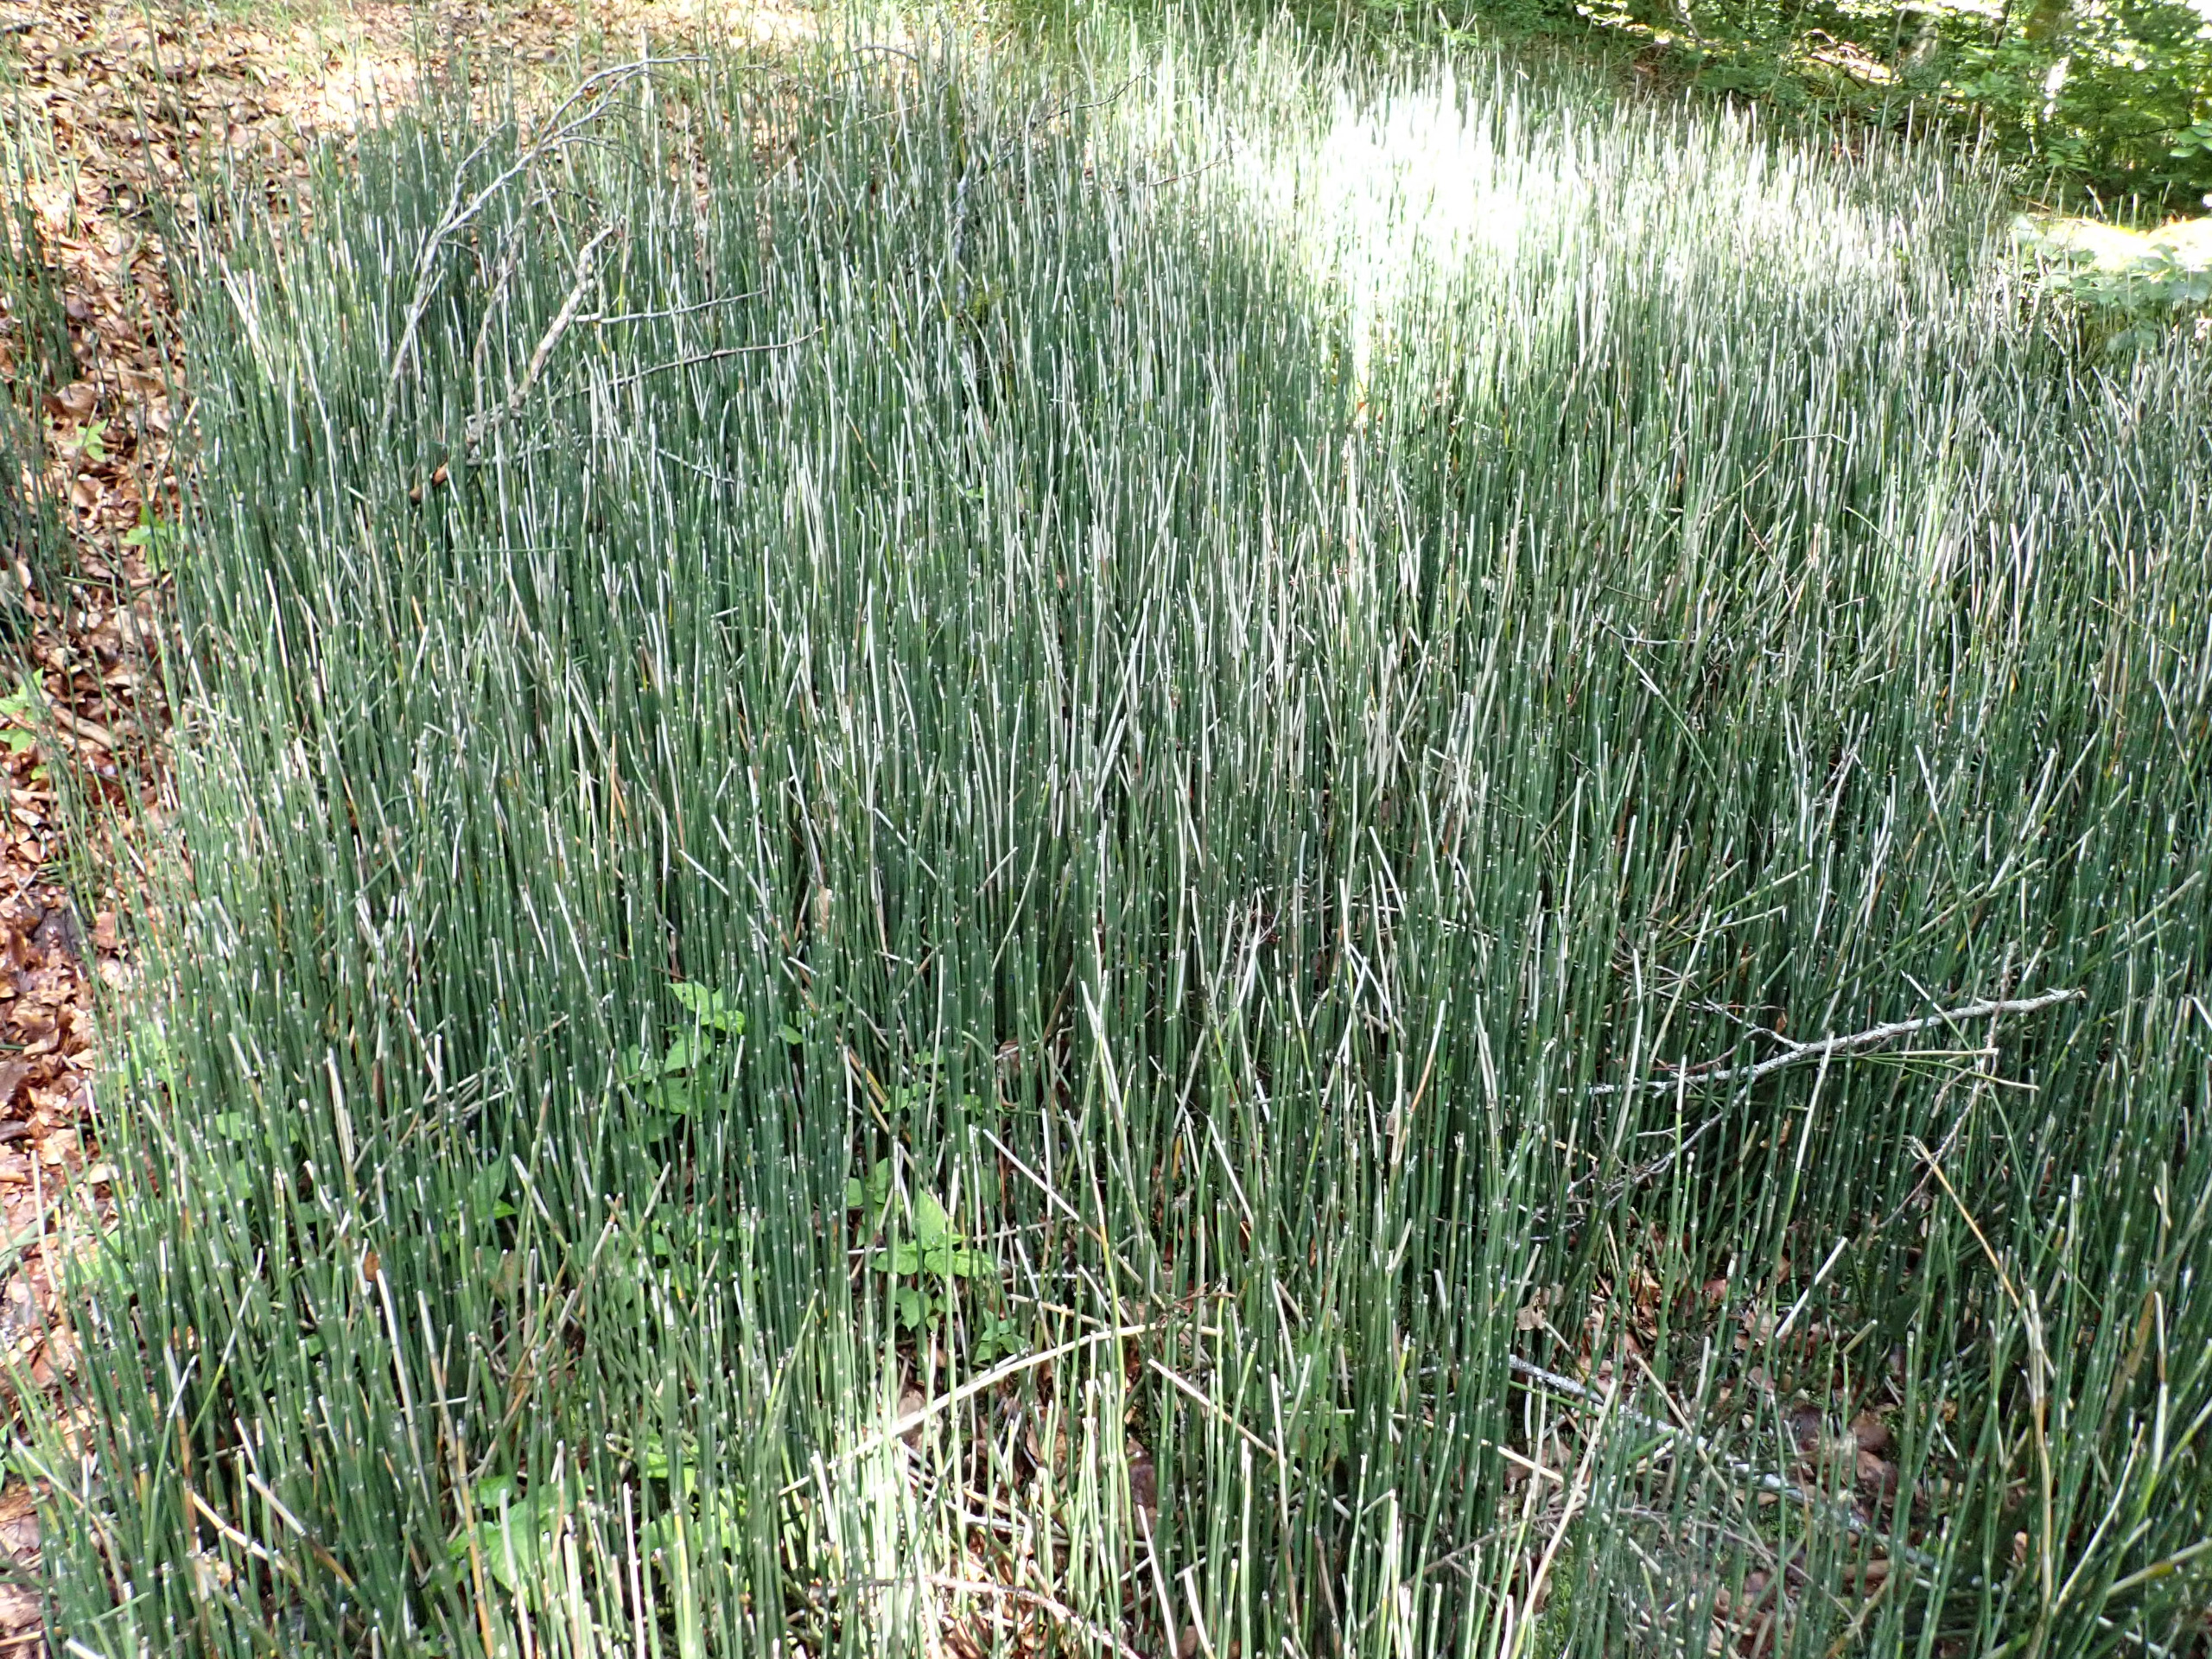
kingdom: Plantae
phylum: Tracheophyta
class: Polypodiopsida
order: Equisetales
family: Equisetaceae
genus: Equisetum
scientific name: Equisetum hyemale
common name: Skavgræs
